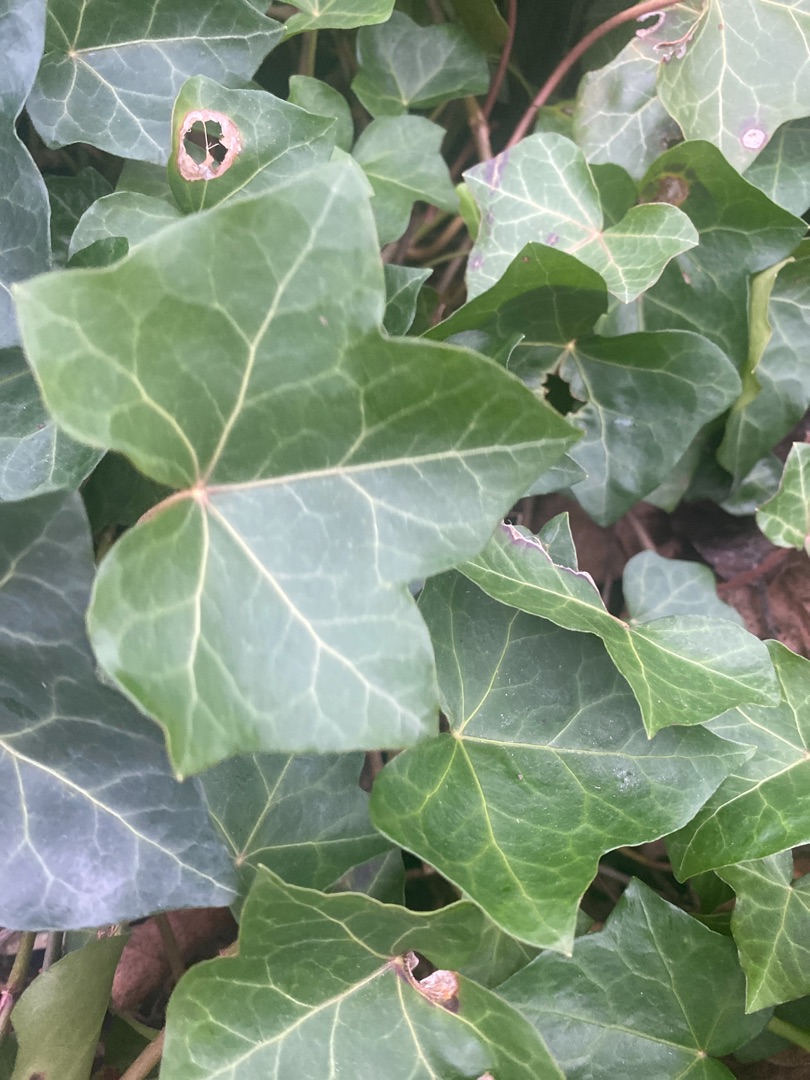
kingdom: Plantae
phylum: Tracheophyta
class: Magnoliopsida
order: Apiales
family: Araliaceae
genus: Hedera
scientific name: Hedera hibernica
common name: Irsk vedbend
